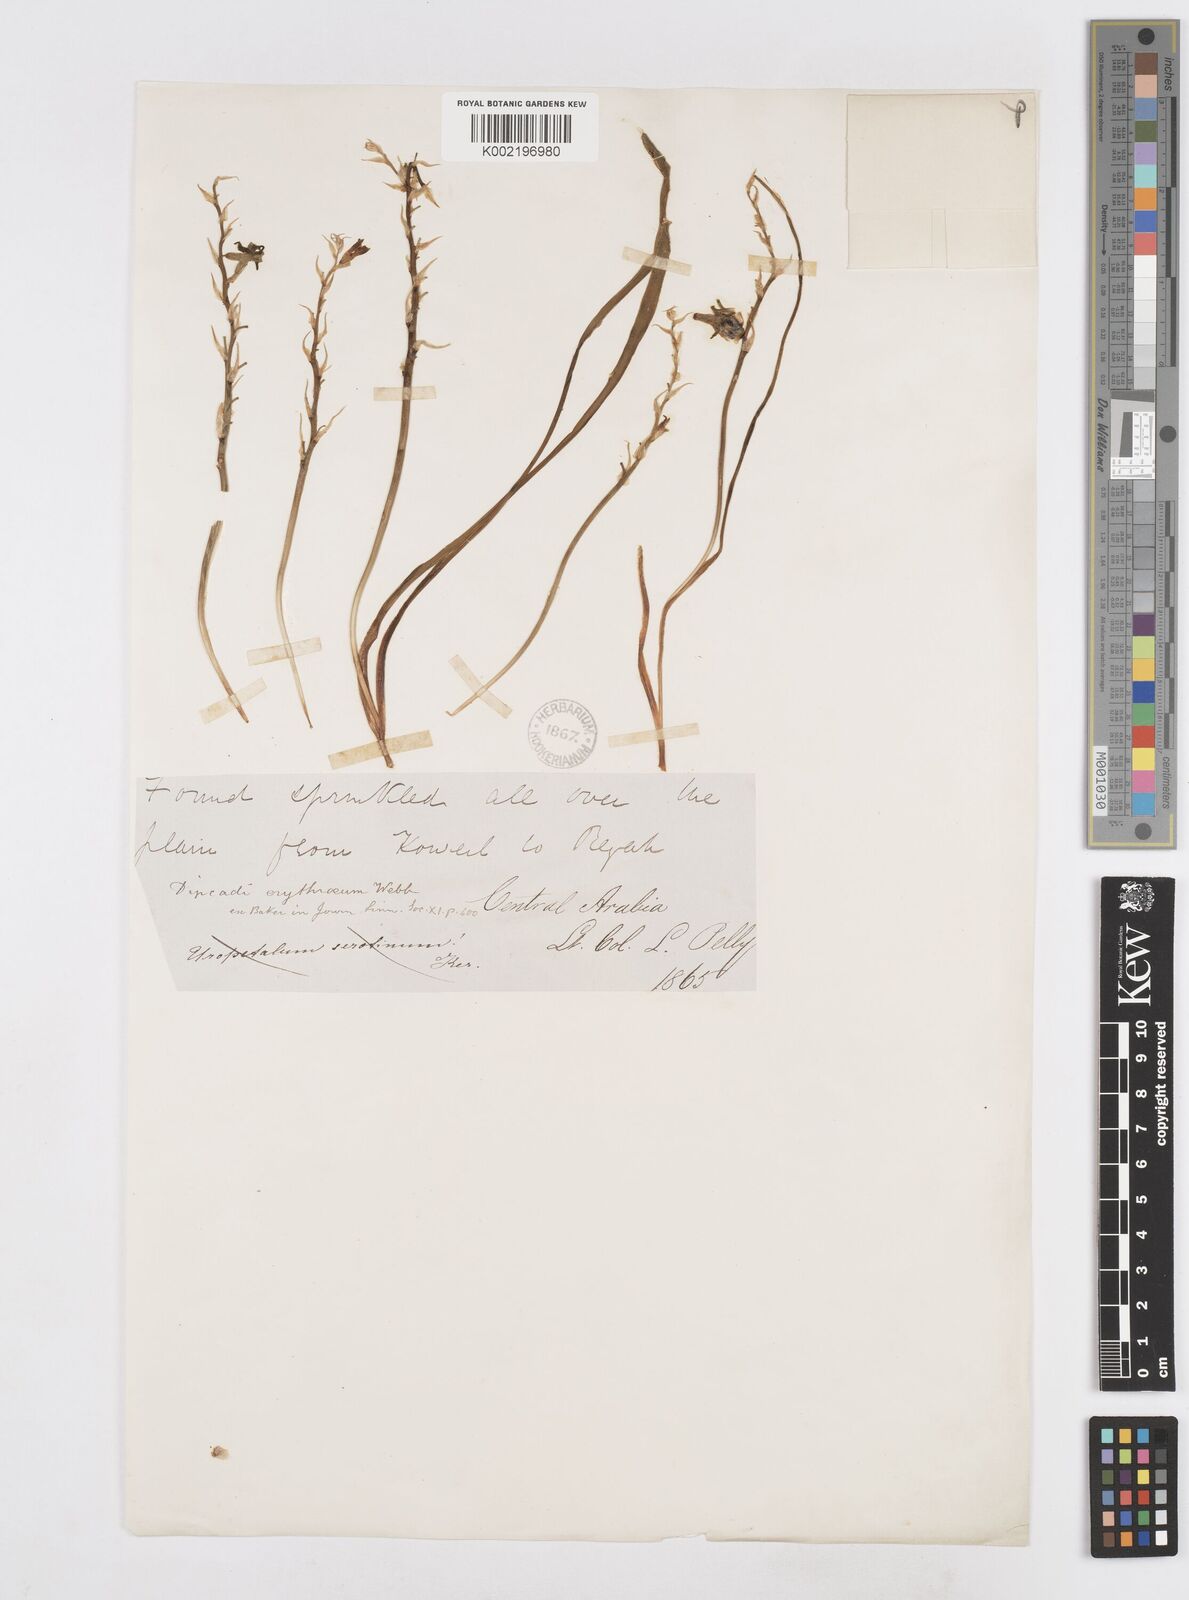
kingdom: Plantae
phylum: Tracheophyta
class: Liliopsida
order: Asparagales
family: Asparagaceae
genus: Dipcadi
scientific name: Dipcadi erythraeum
